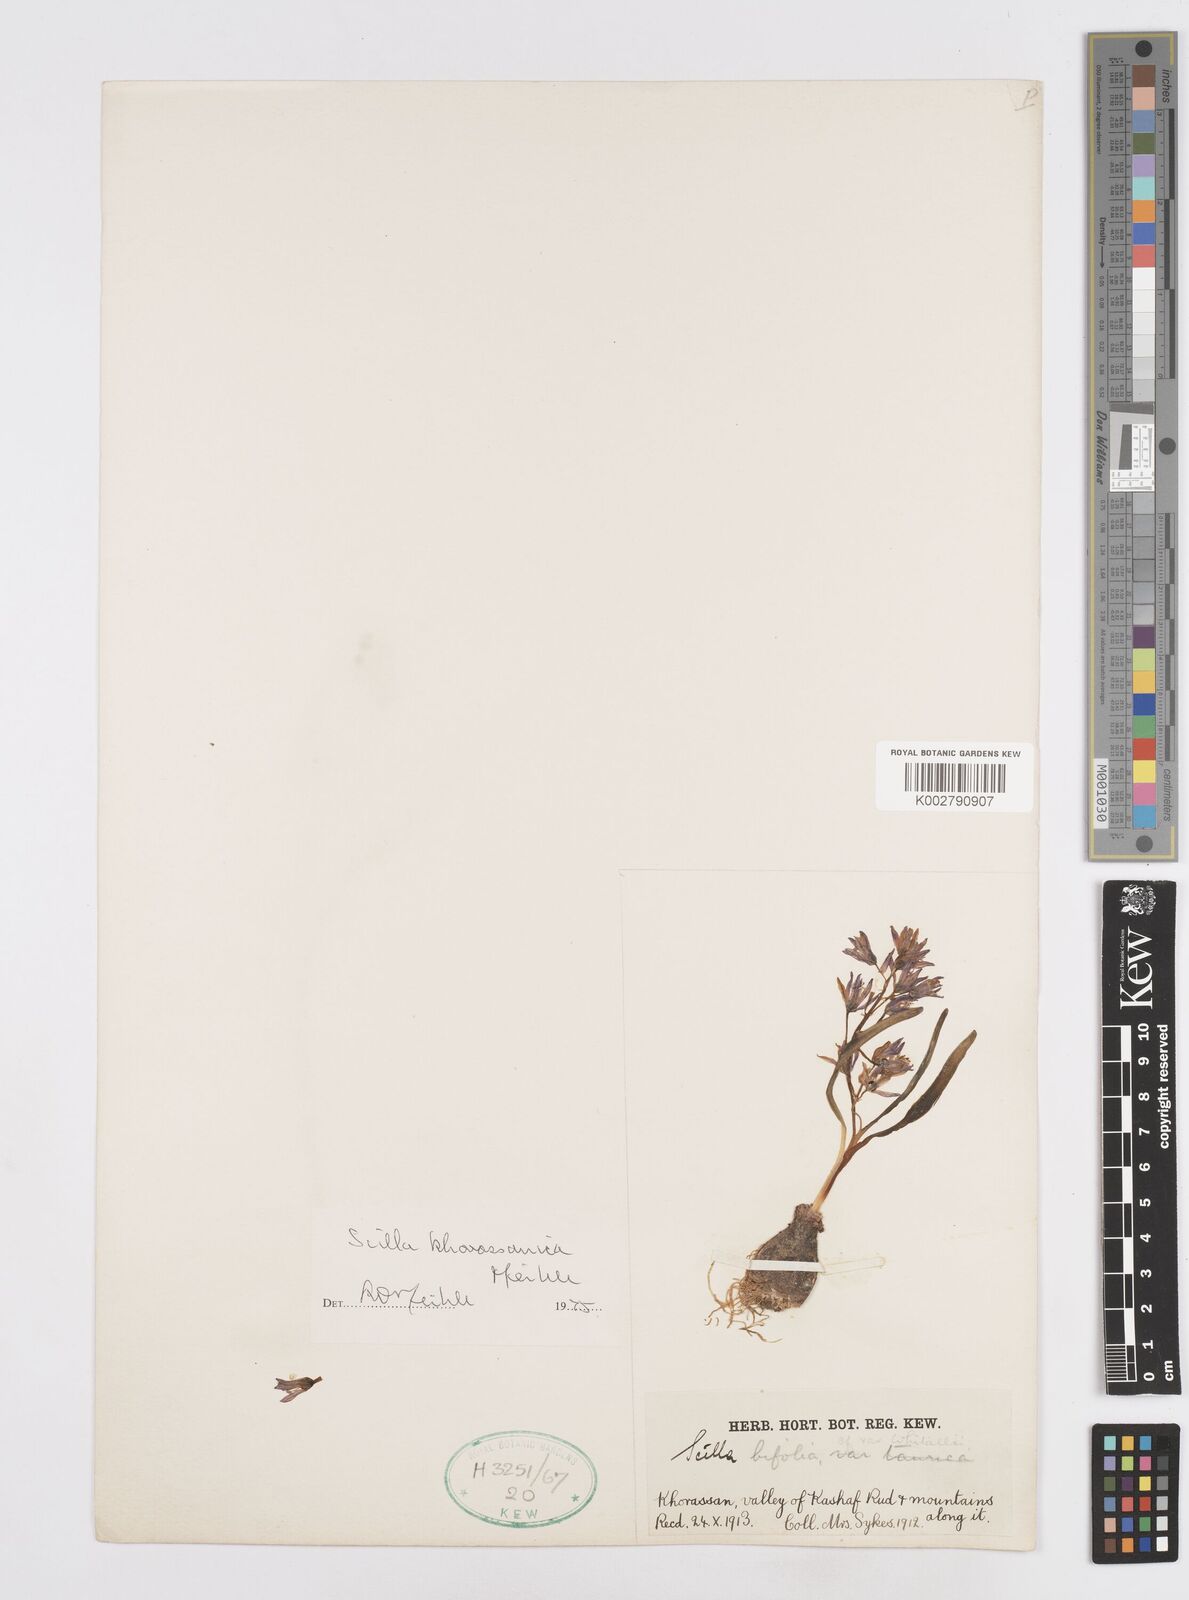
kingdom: Plantae
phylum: Tracheophyta
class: Liliopsida
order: Asparagales
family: Asparagaceae
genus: Fessia
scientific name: Fessia khorassanica
